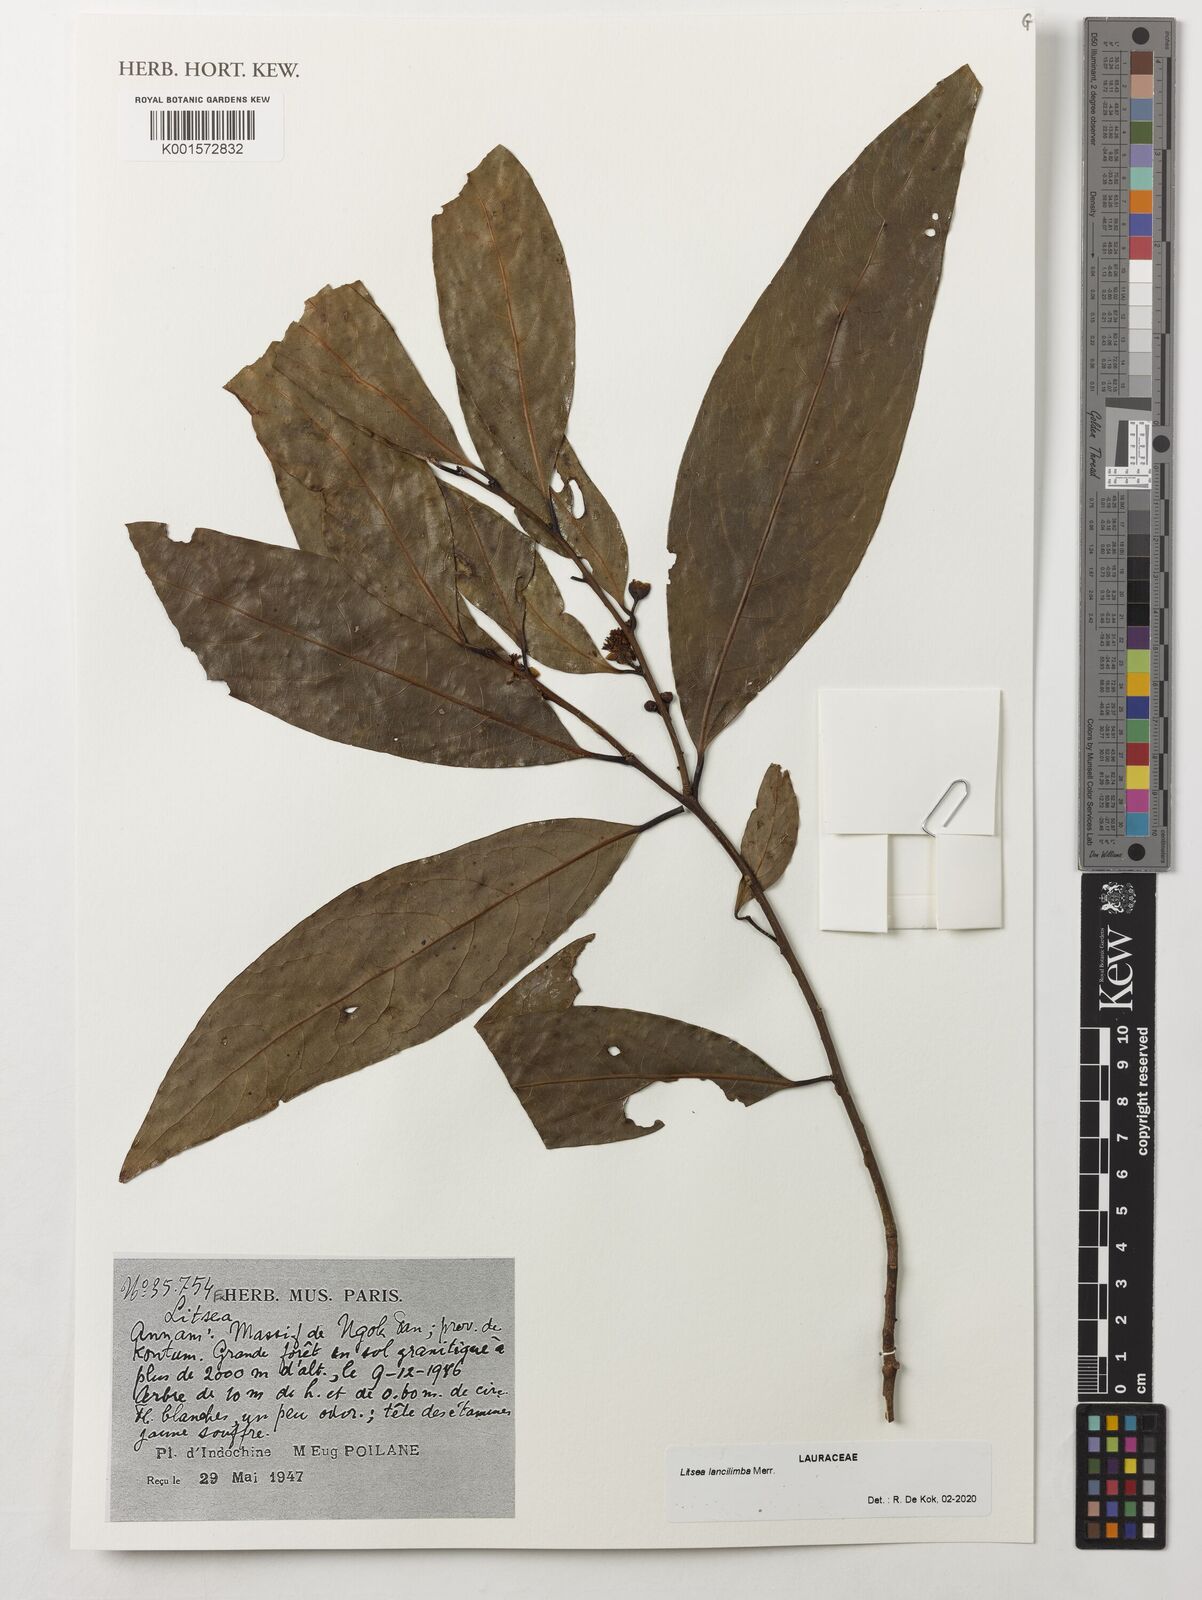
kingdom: Plantae
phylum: Tracheophyta
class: Magnoliopsida
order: Laurales
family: Lauraceae
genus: Litsea
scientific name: Litsea lancilimba
